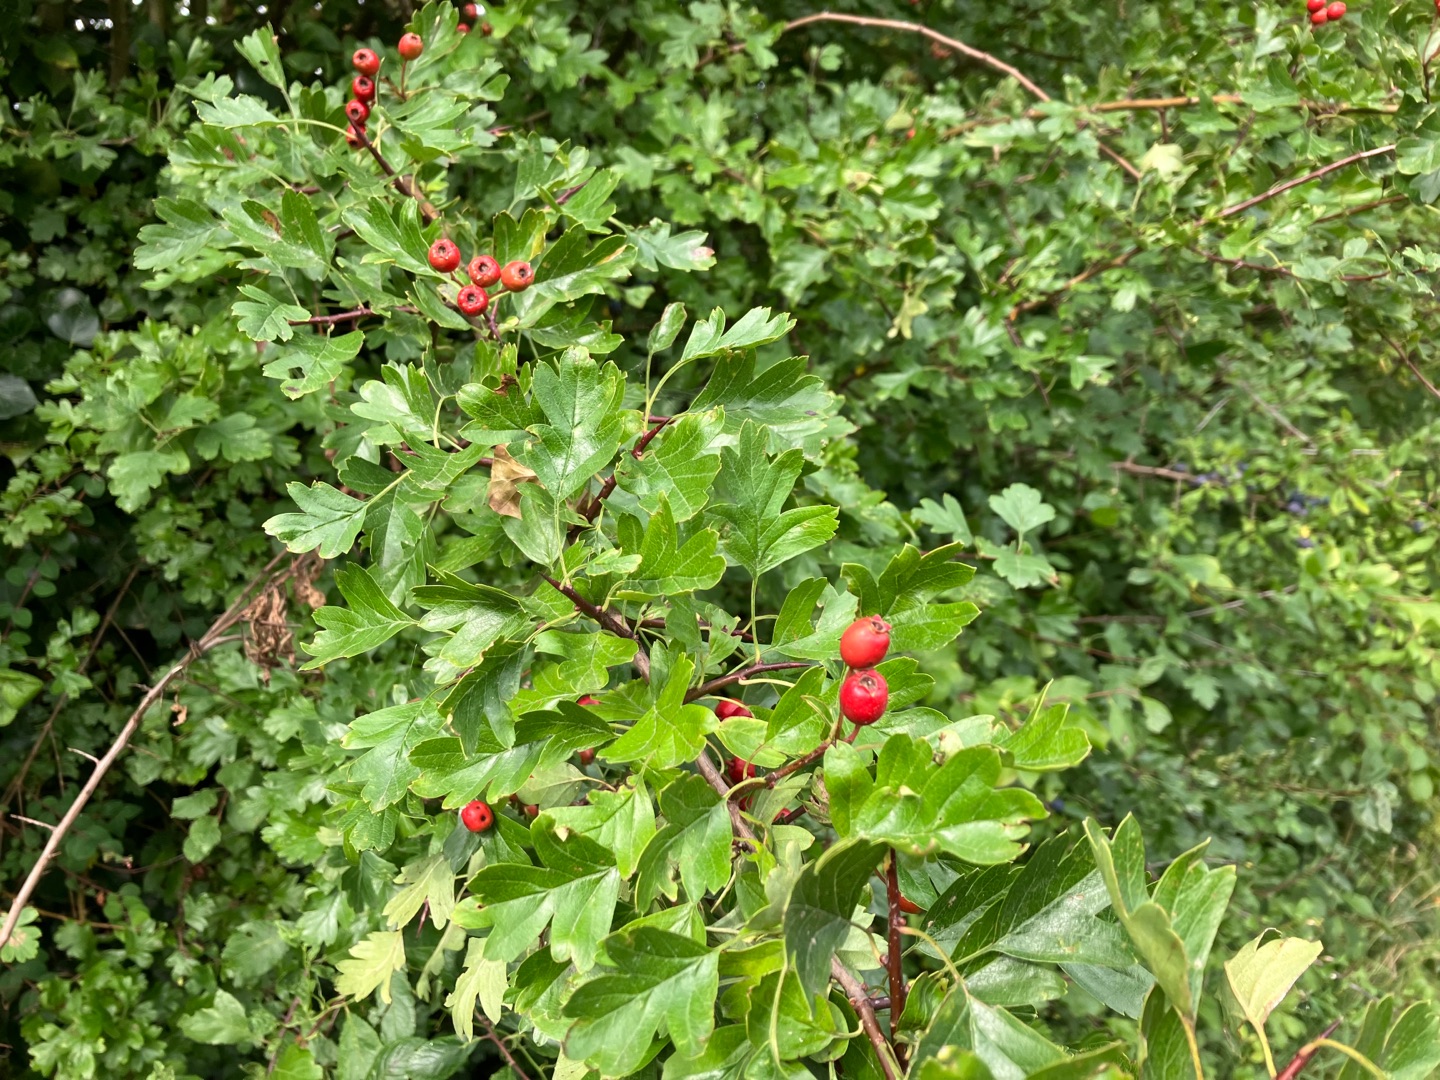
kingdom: Plantae
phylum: Tracheophyta
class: Magnoliopsida
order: Rosales
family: Rosaceae
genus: Crataegus
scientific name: Crataegus monogyna
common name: Engriflet hvidtjørn
